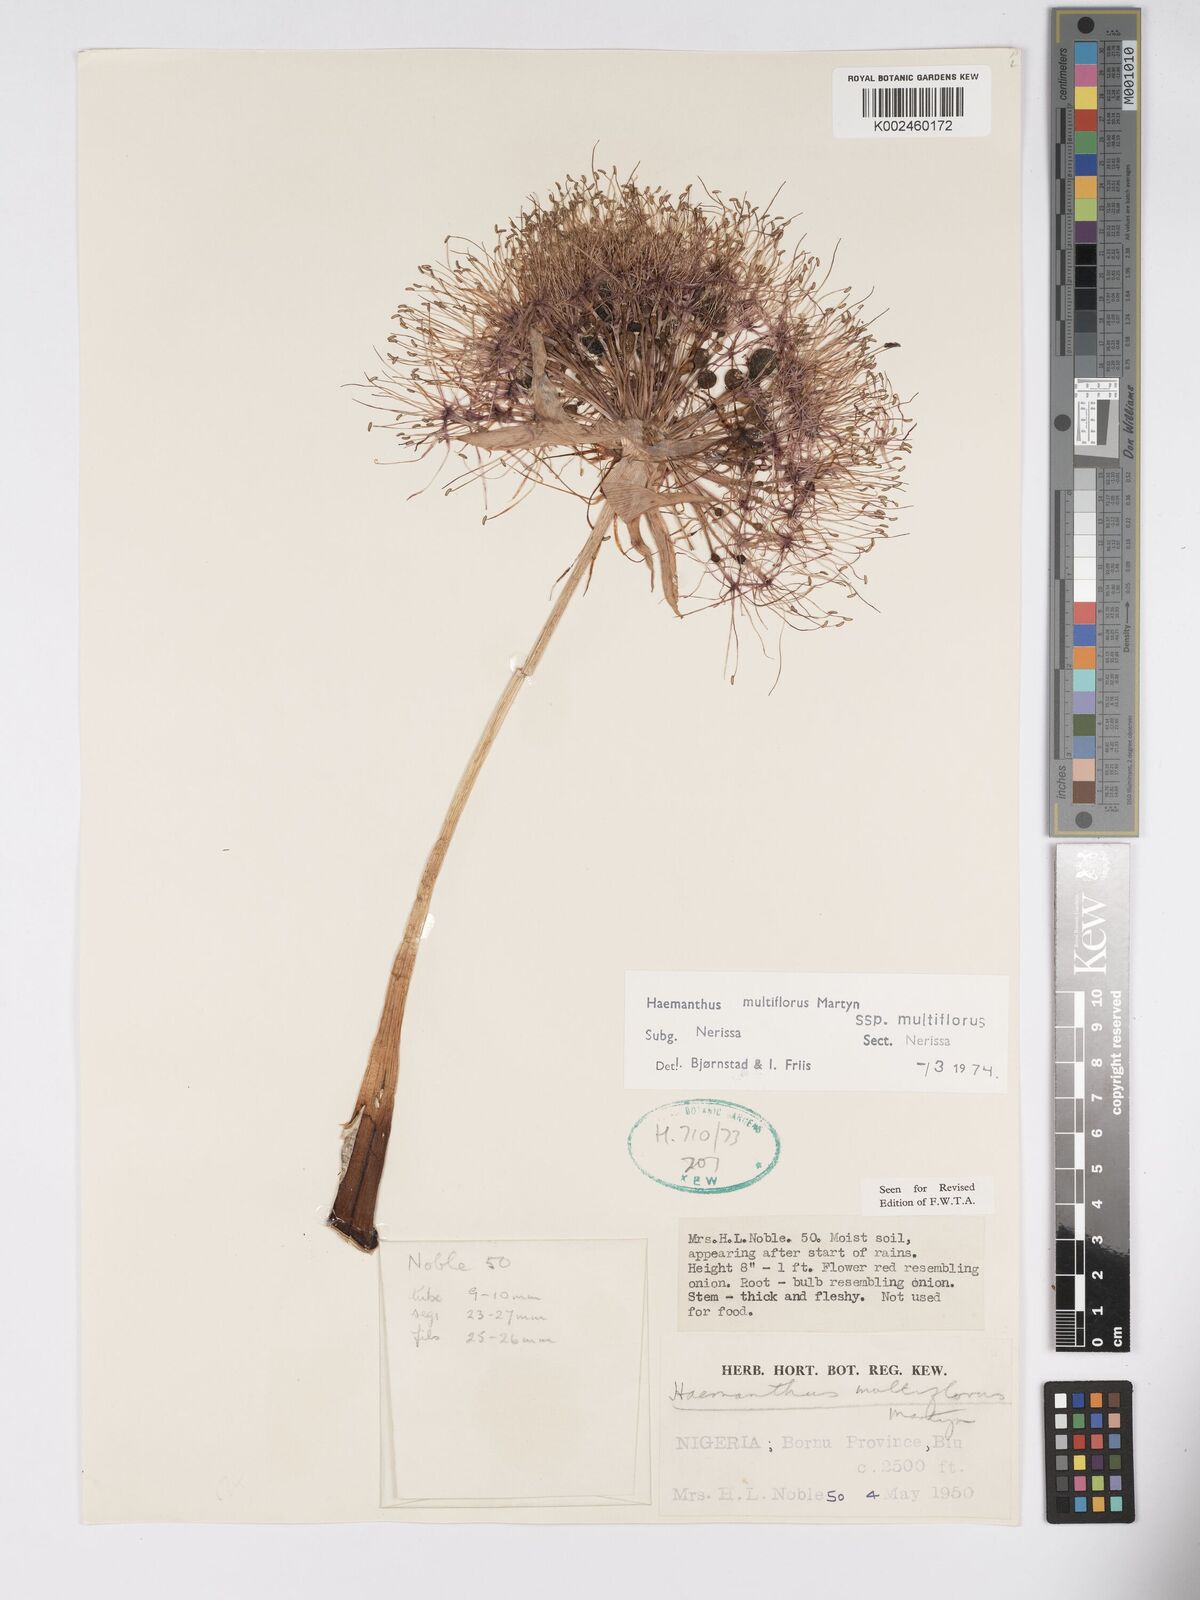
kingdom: Plantae
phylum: Tracheophyta
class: Liliopsida
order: Asparagales
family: Amaryllidaceae
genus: Scadoxus
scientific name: Scadoxus multiflorus
